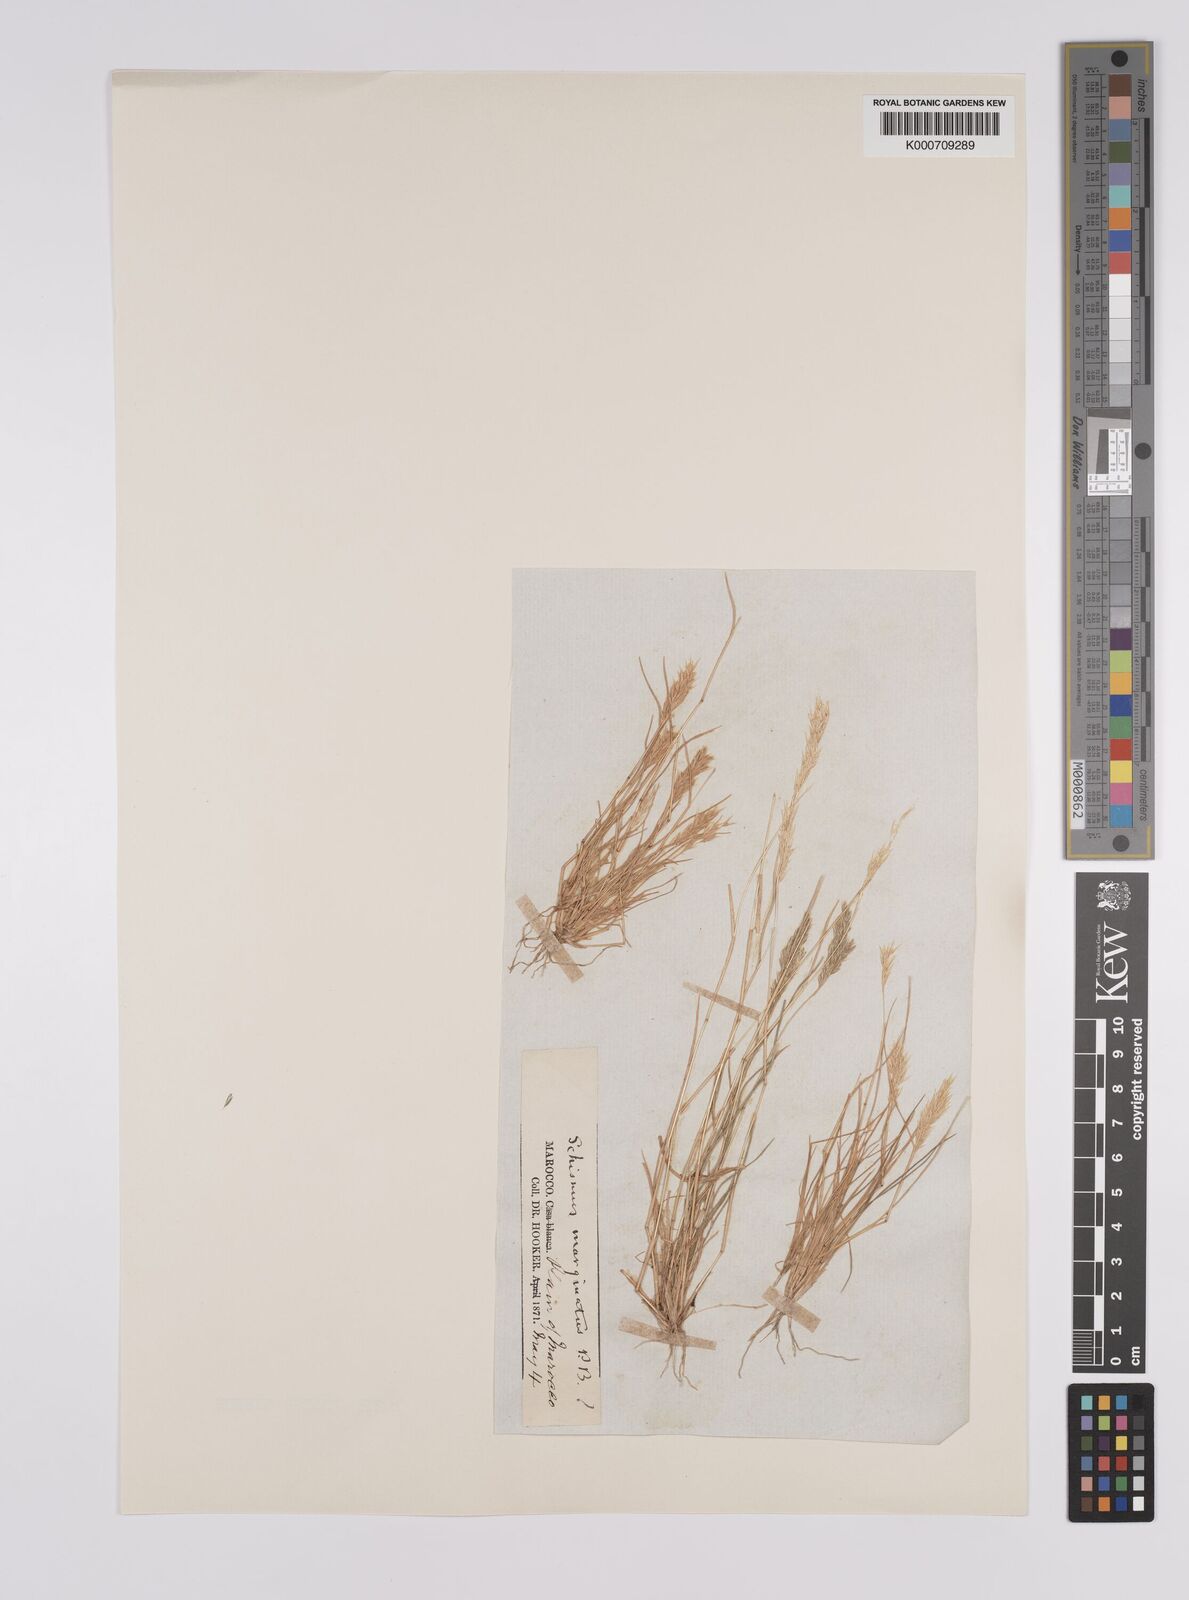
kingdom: Plantae
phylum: Tracheophyta
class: Liliopsida
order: Poales
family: Poaceae
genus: Schismus
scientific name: Schismus barbatus
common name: Kelch-grass
